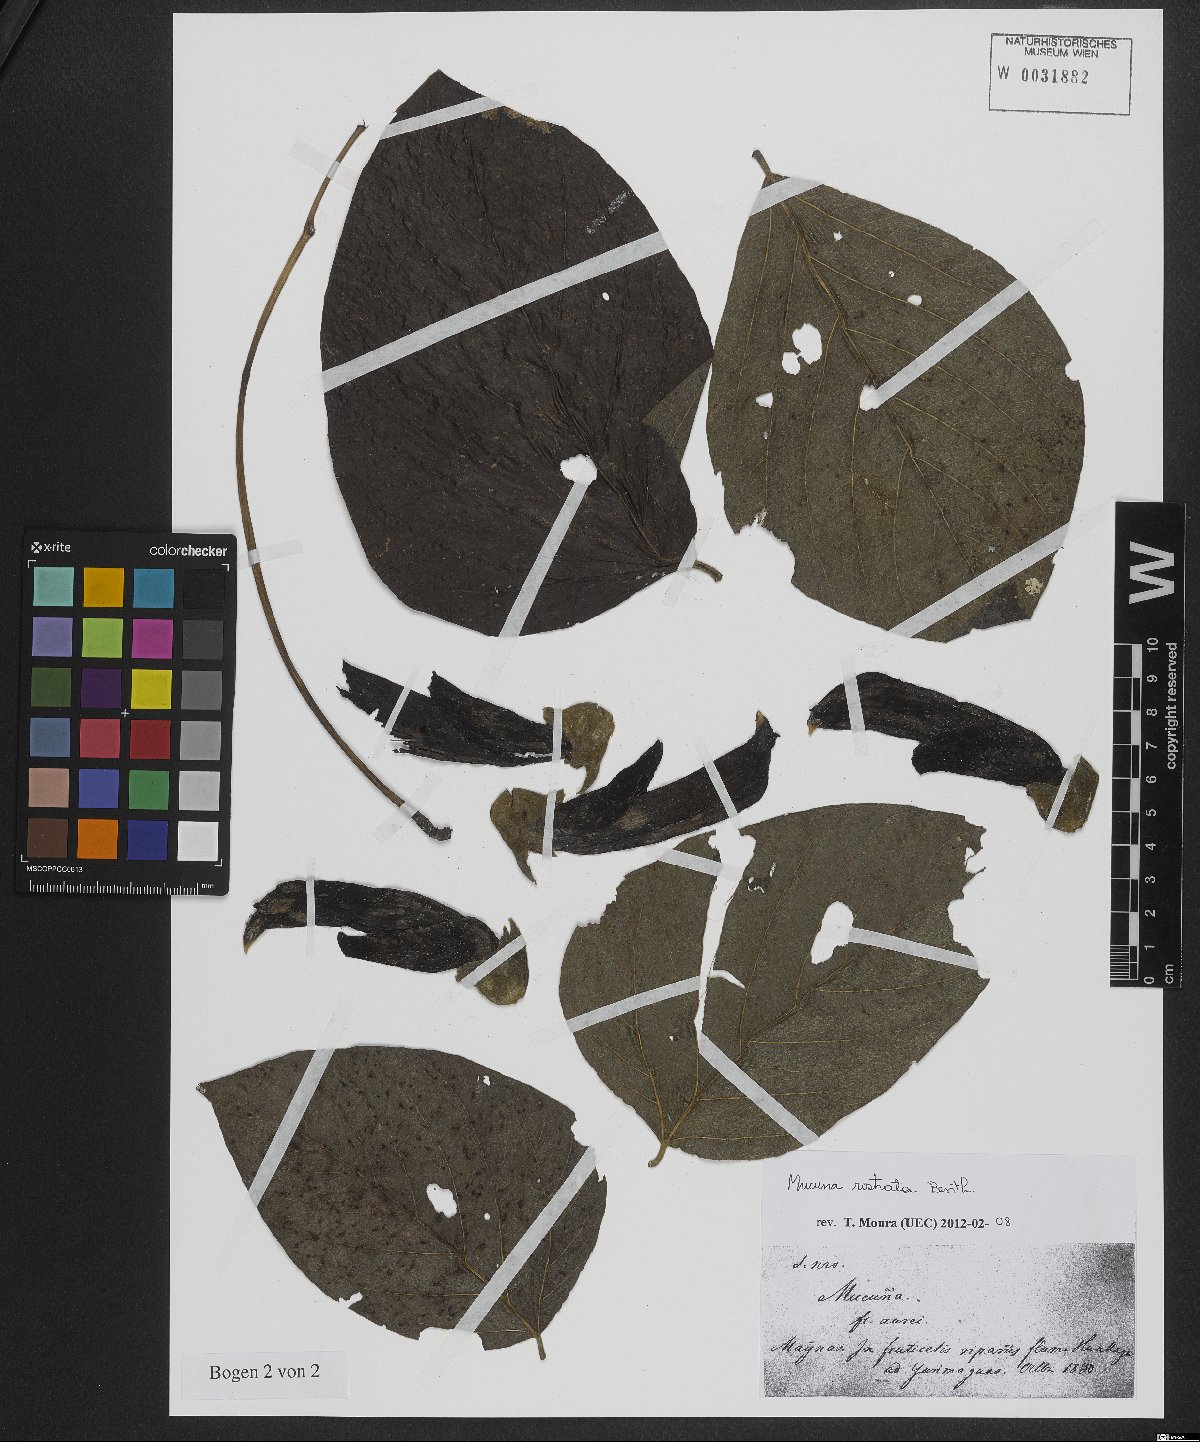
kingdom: Plantae
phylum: Tracheophyta
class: Magnoliopsida
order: Fabales
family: Fabaceae
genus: Mucuna
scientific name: Mucuna sloanei
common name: Horse-eye bean
